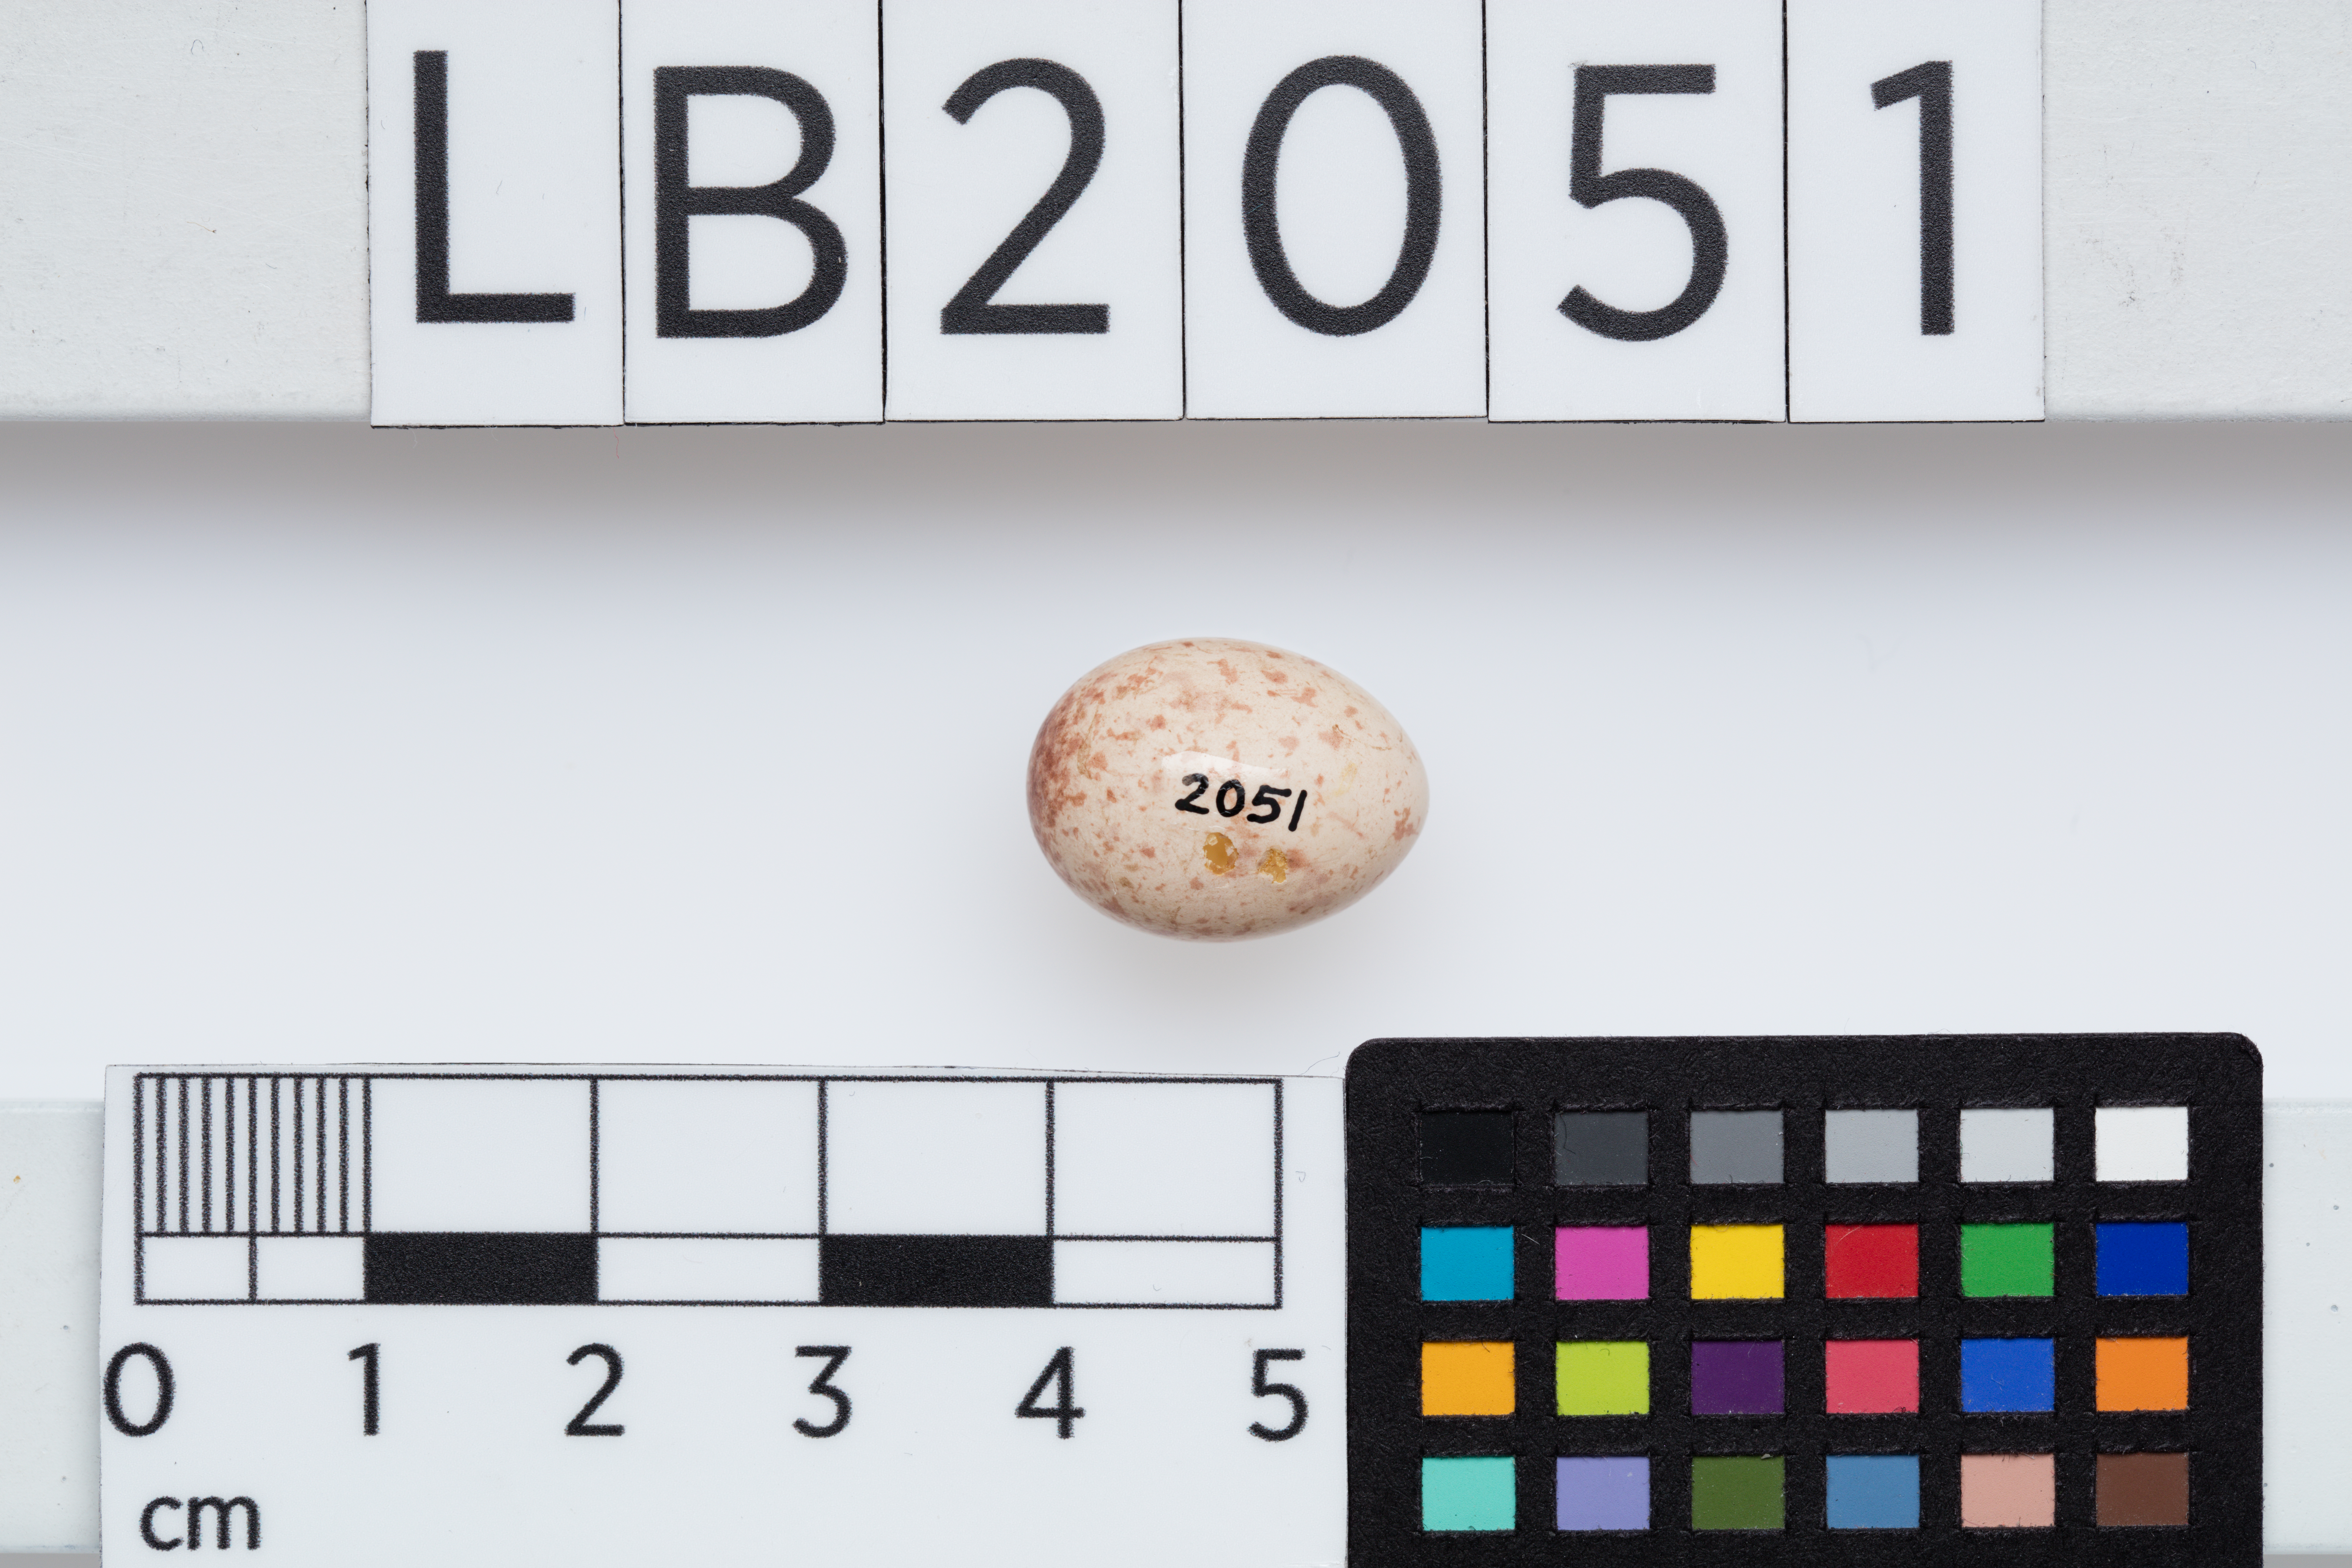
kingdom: Animalia
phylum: Chordata
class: Aves
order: Passeriformes
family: Acanthizidae
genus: Gerygone
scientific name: Gerygone albofrontata
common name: Chatham gerygone
